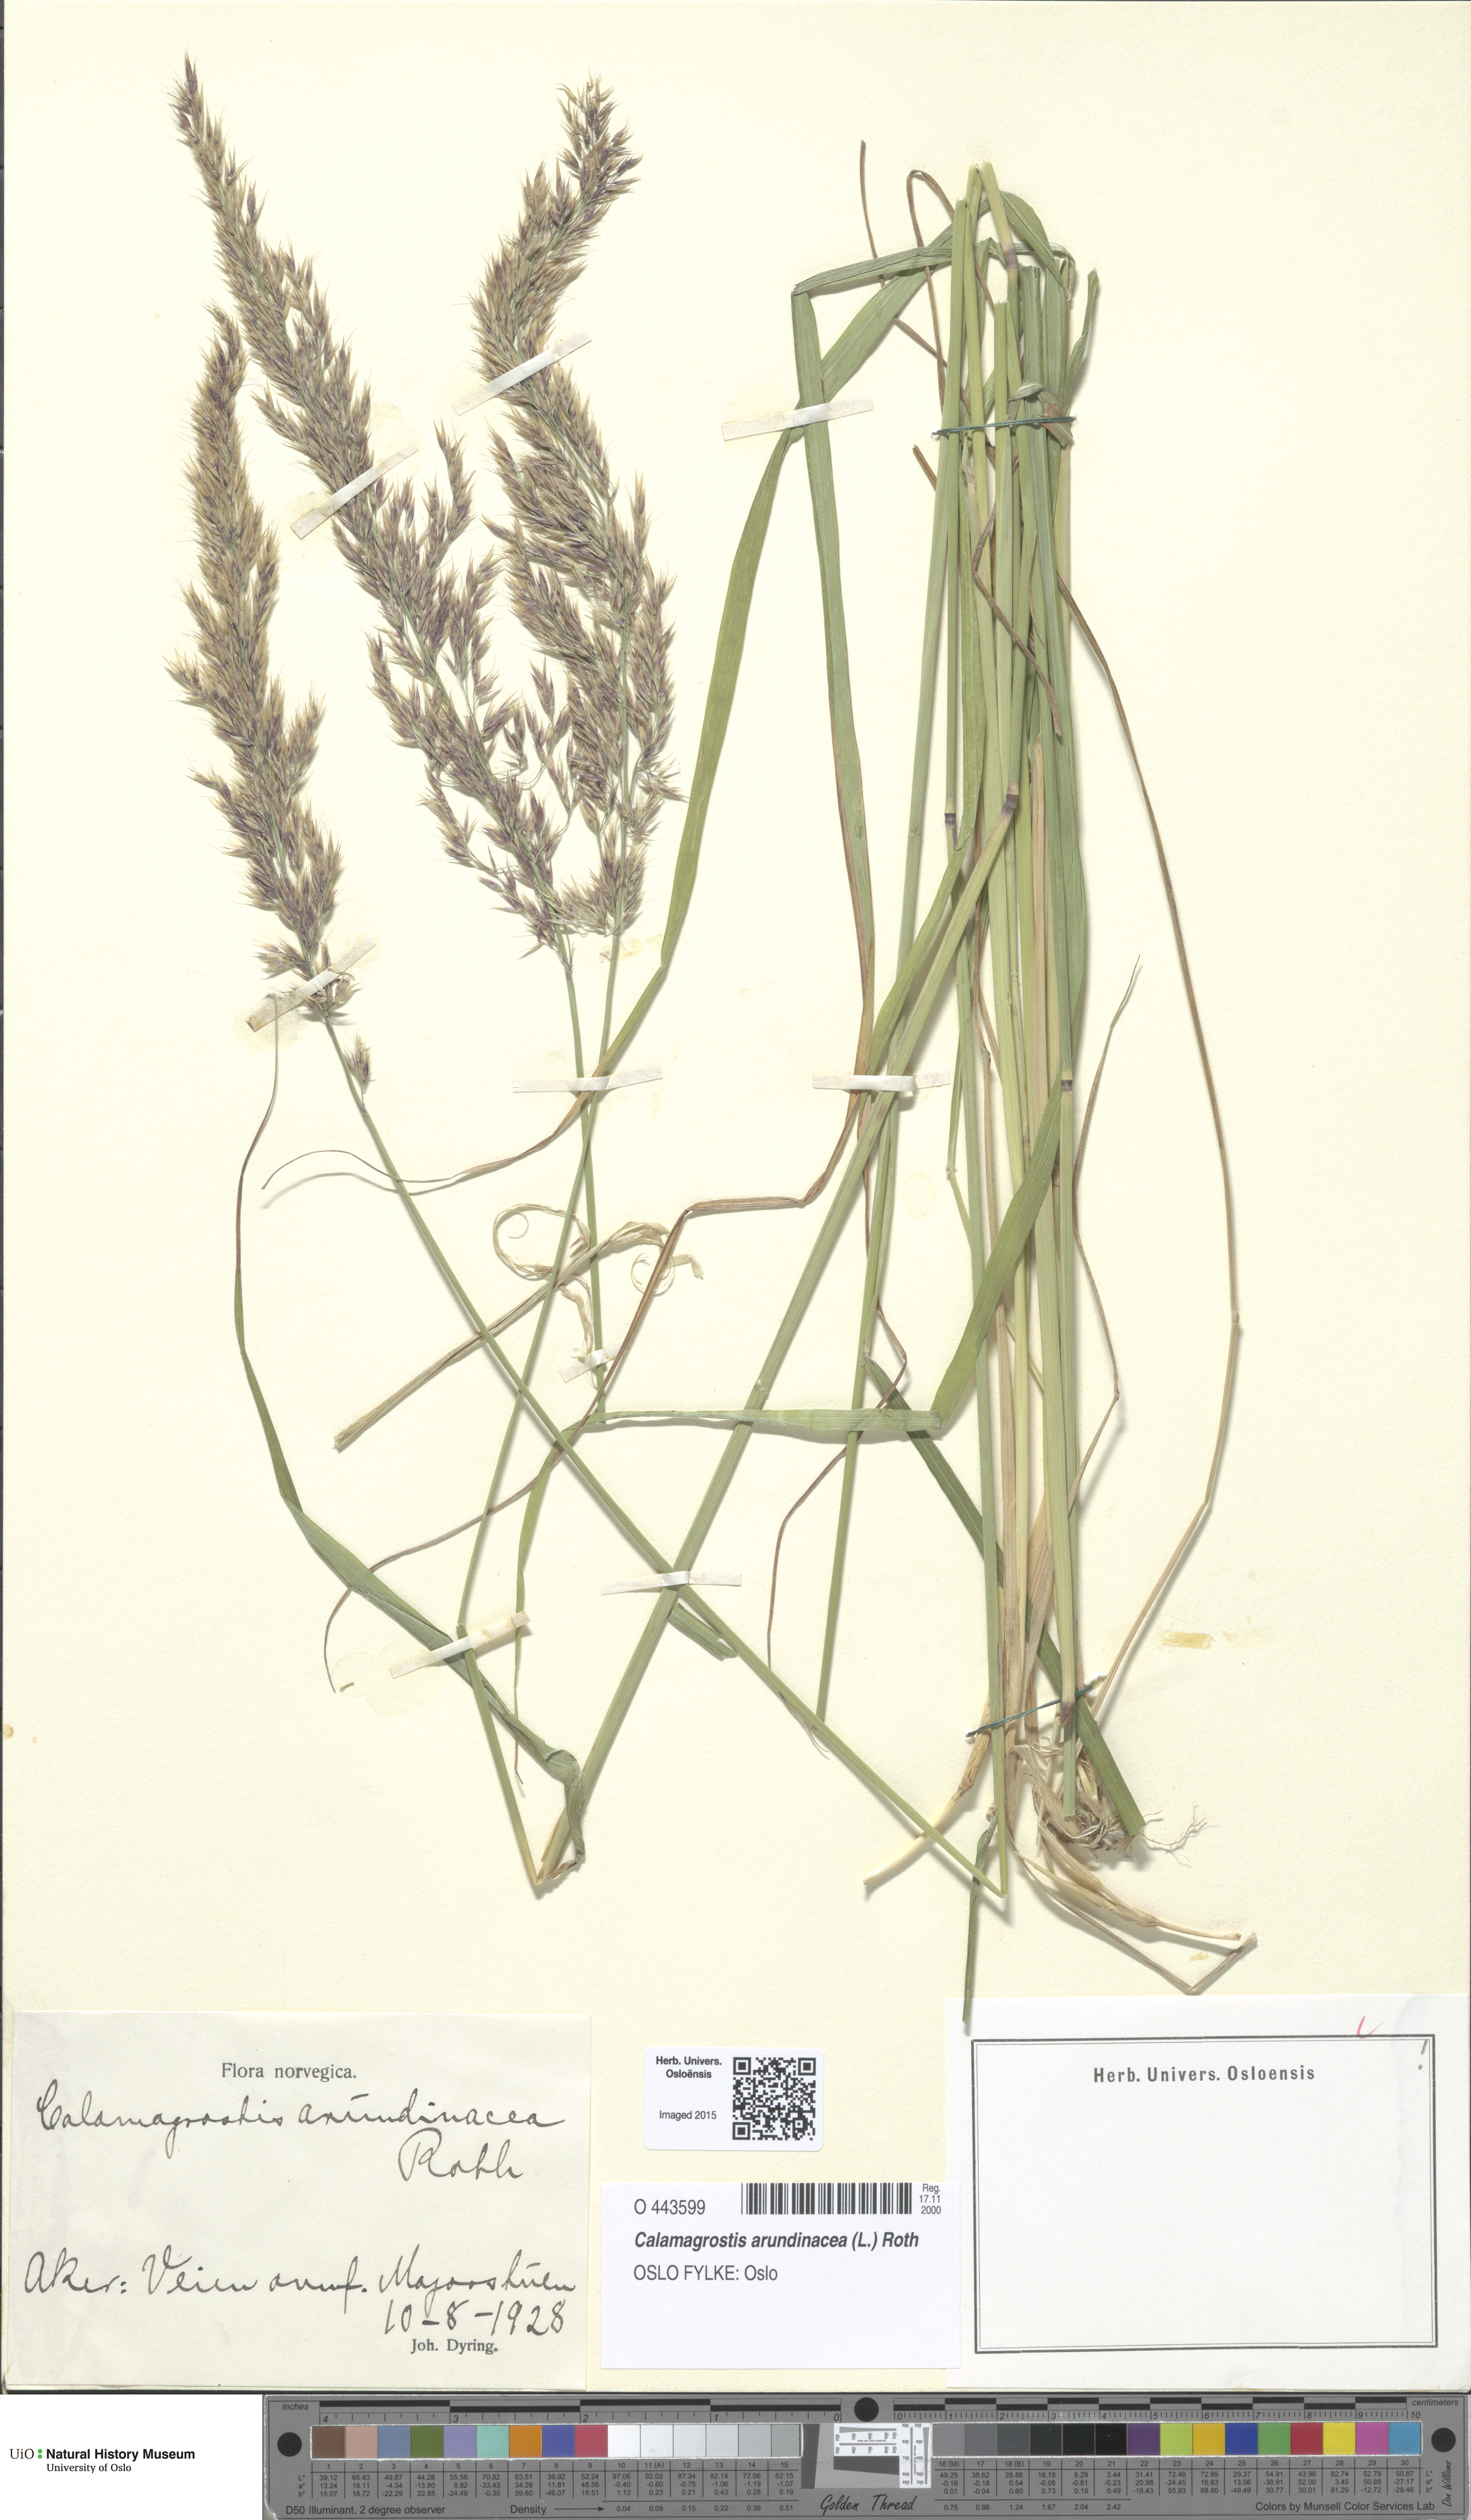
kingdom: Plantae
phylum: Tracheophyta
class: Liliopsida
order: Poales
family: Poaceae
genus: Calamagrostis
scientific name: Calamagrostis arundinacea
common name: Metskastik
